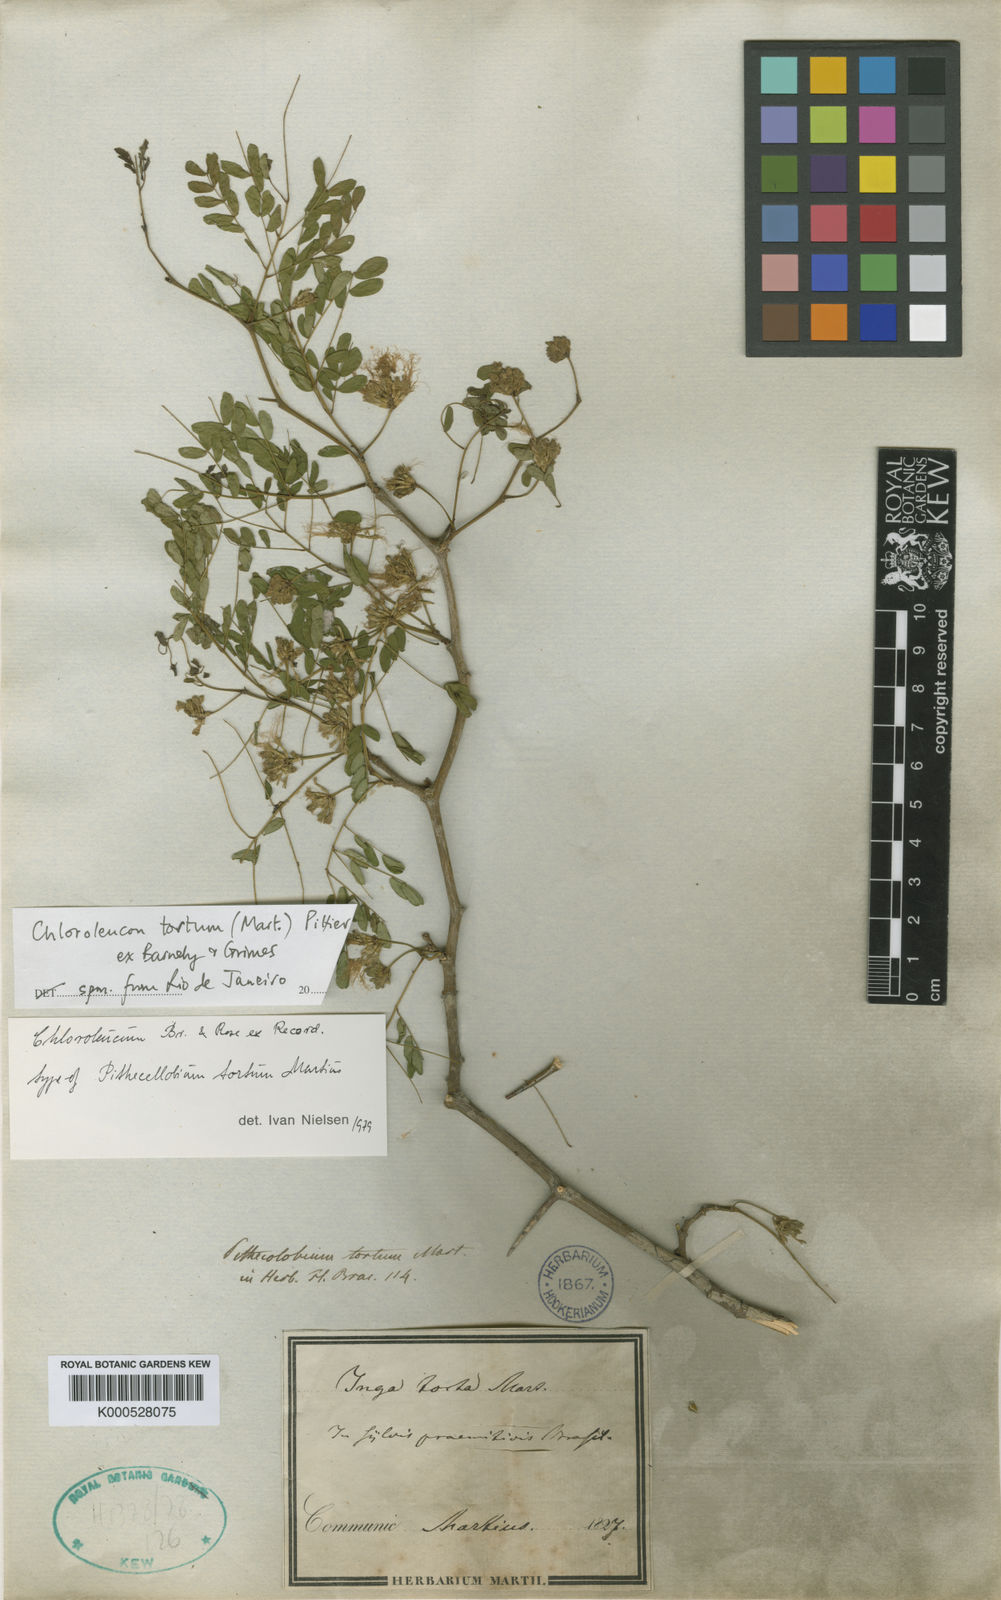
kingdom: Plantae
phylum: Tracheophyta
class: Magnoliopsida
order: Fabales
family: Fabaceae
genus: Chloroleucon
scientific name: Chloroleucon
